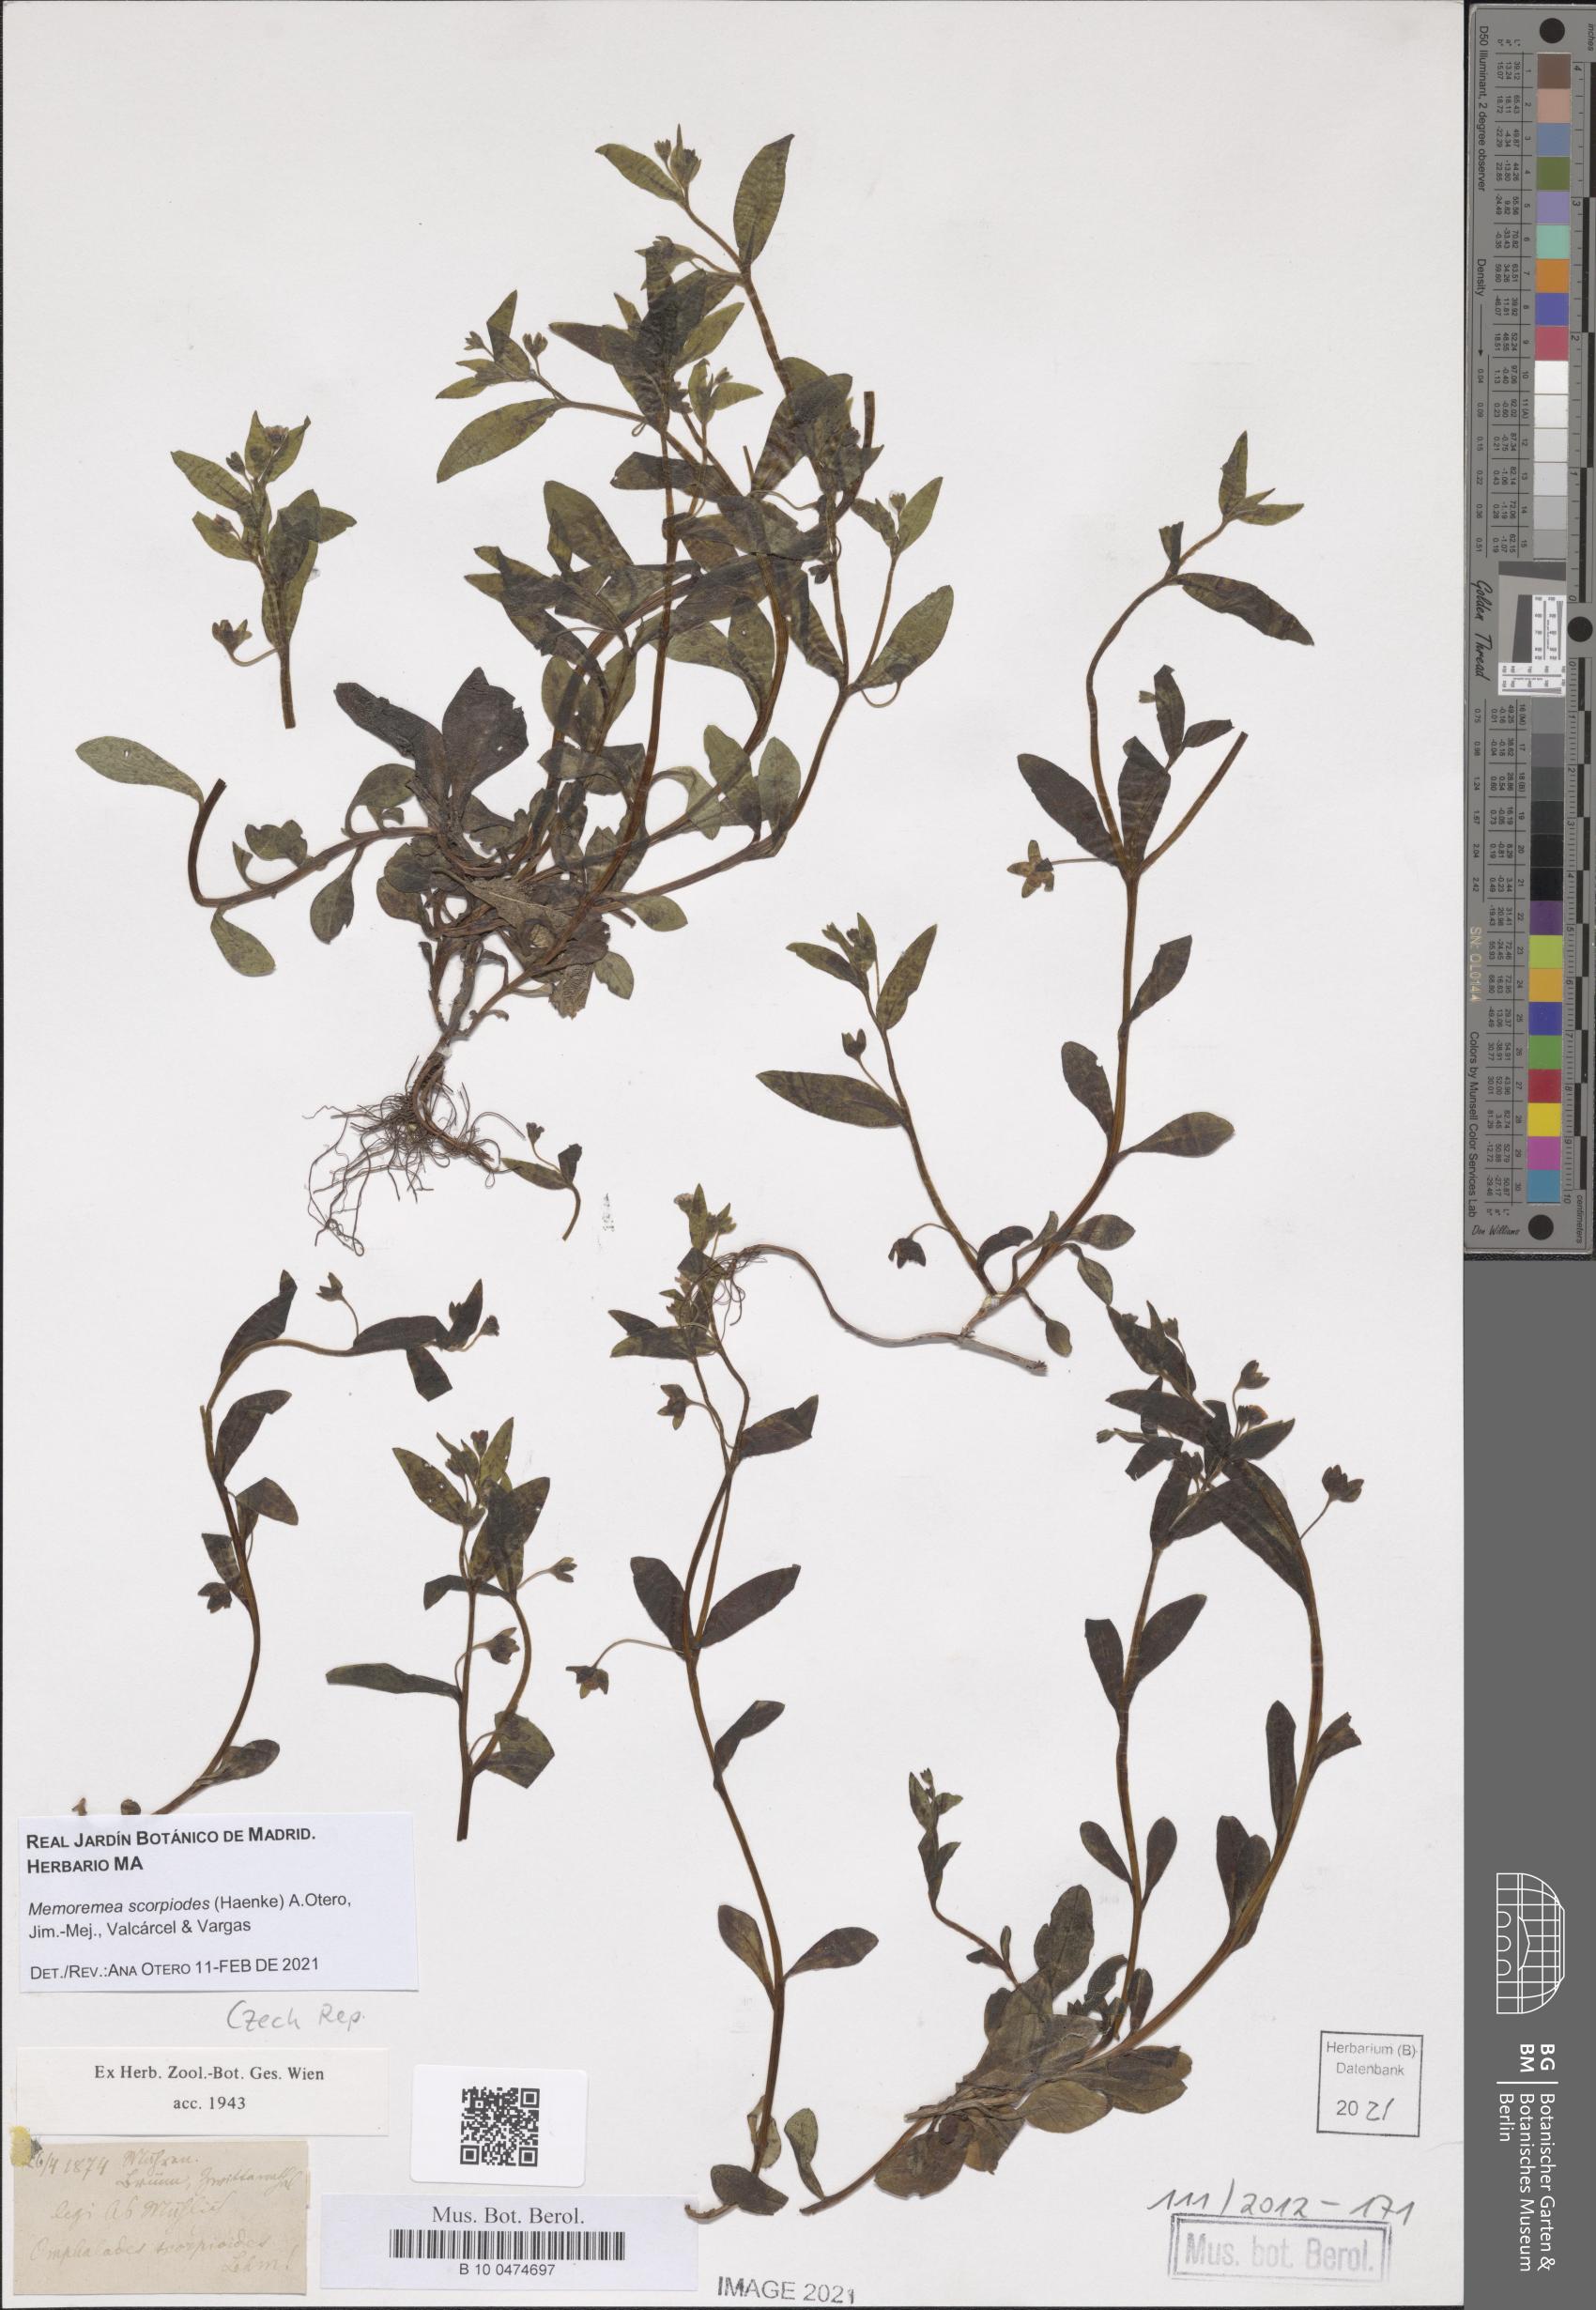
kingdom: Plantae
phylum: Tracheophyta
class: Magnoliopsida
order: Boraginales
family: Boraginaceae
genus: Memoremea
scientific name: Memoremea scorpioides
